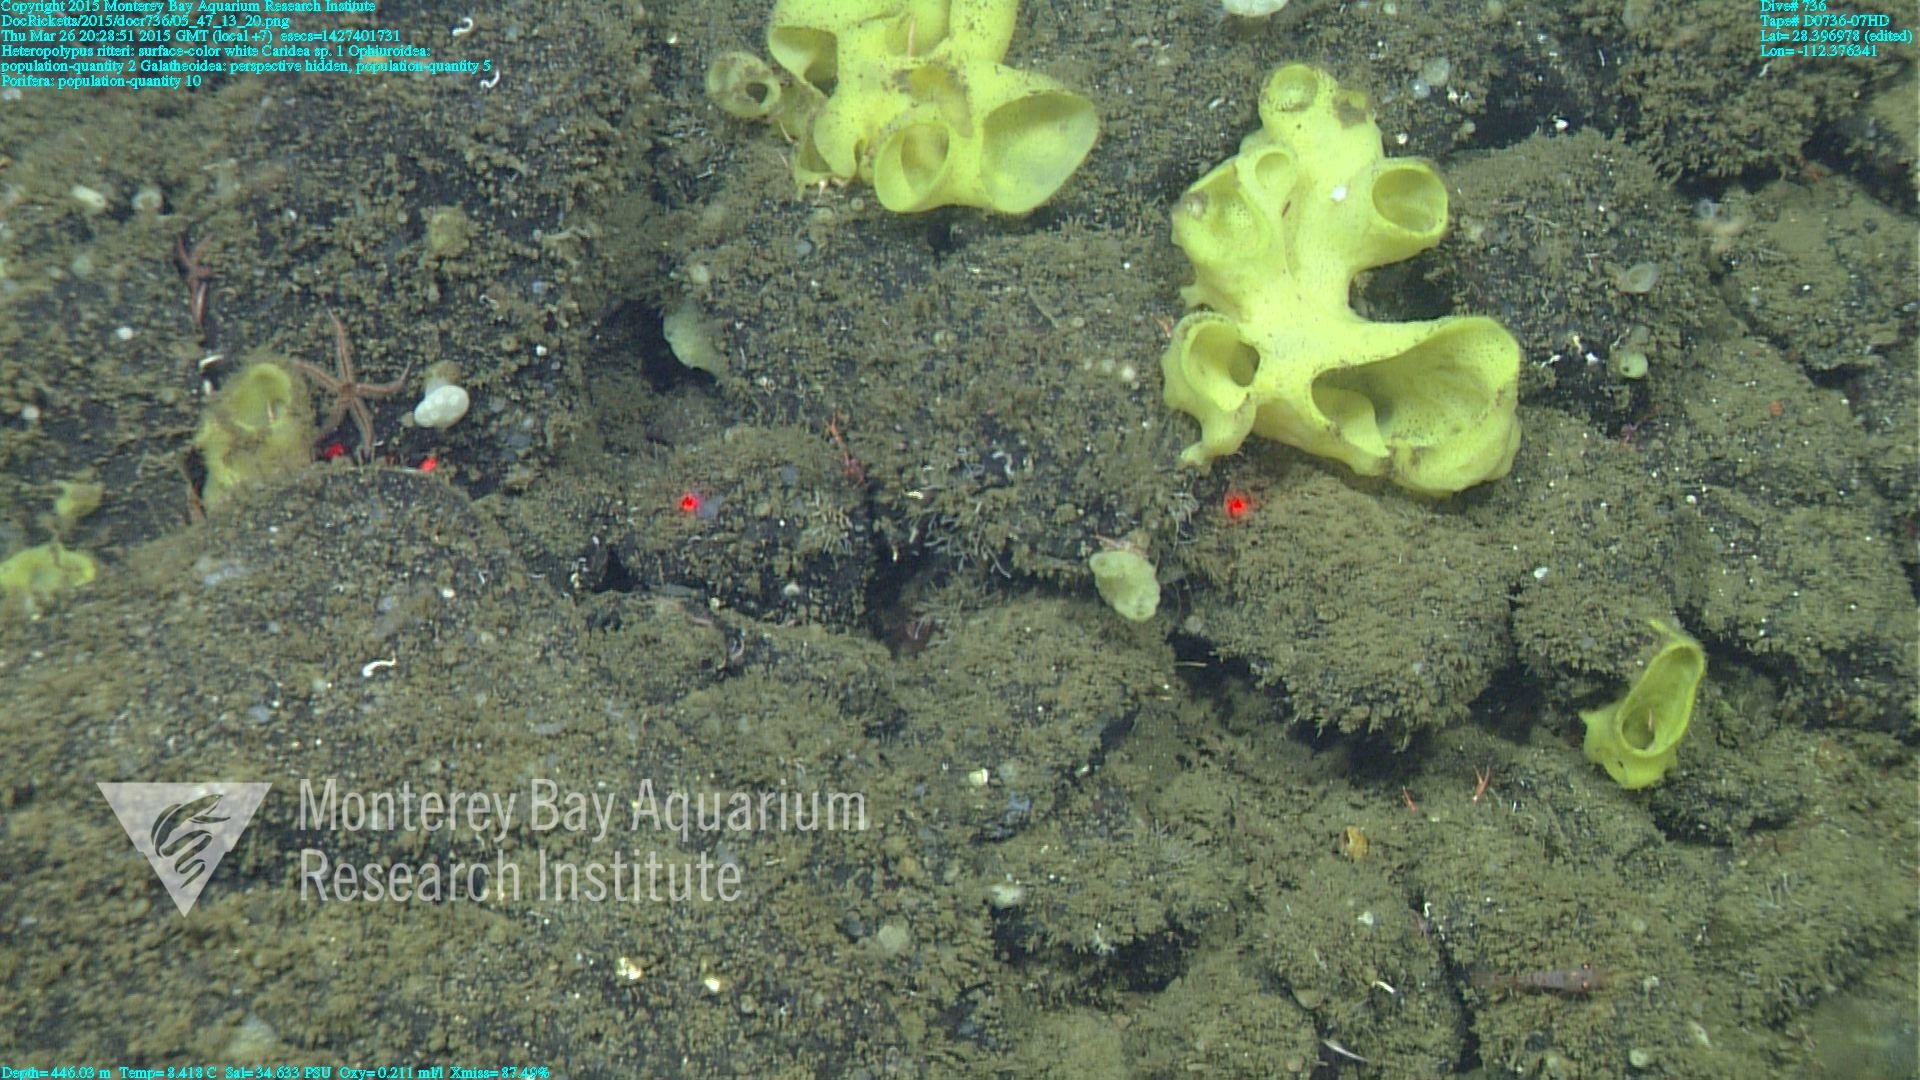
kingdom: Animalia
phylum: Cnidaria
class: Anthozoa
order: Scleralcyonacea
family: Coralliidae
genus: Heteropolypus
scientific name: Heteropolypus ritteri
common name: Ritter's soft coral
